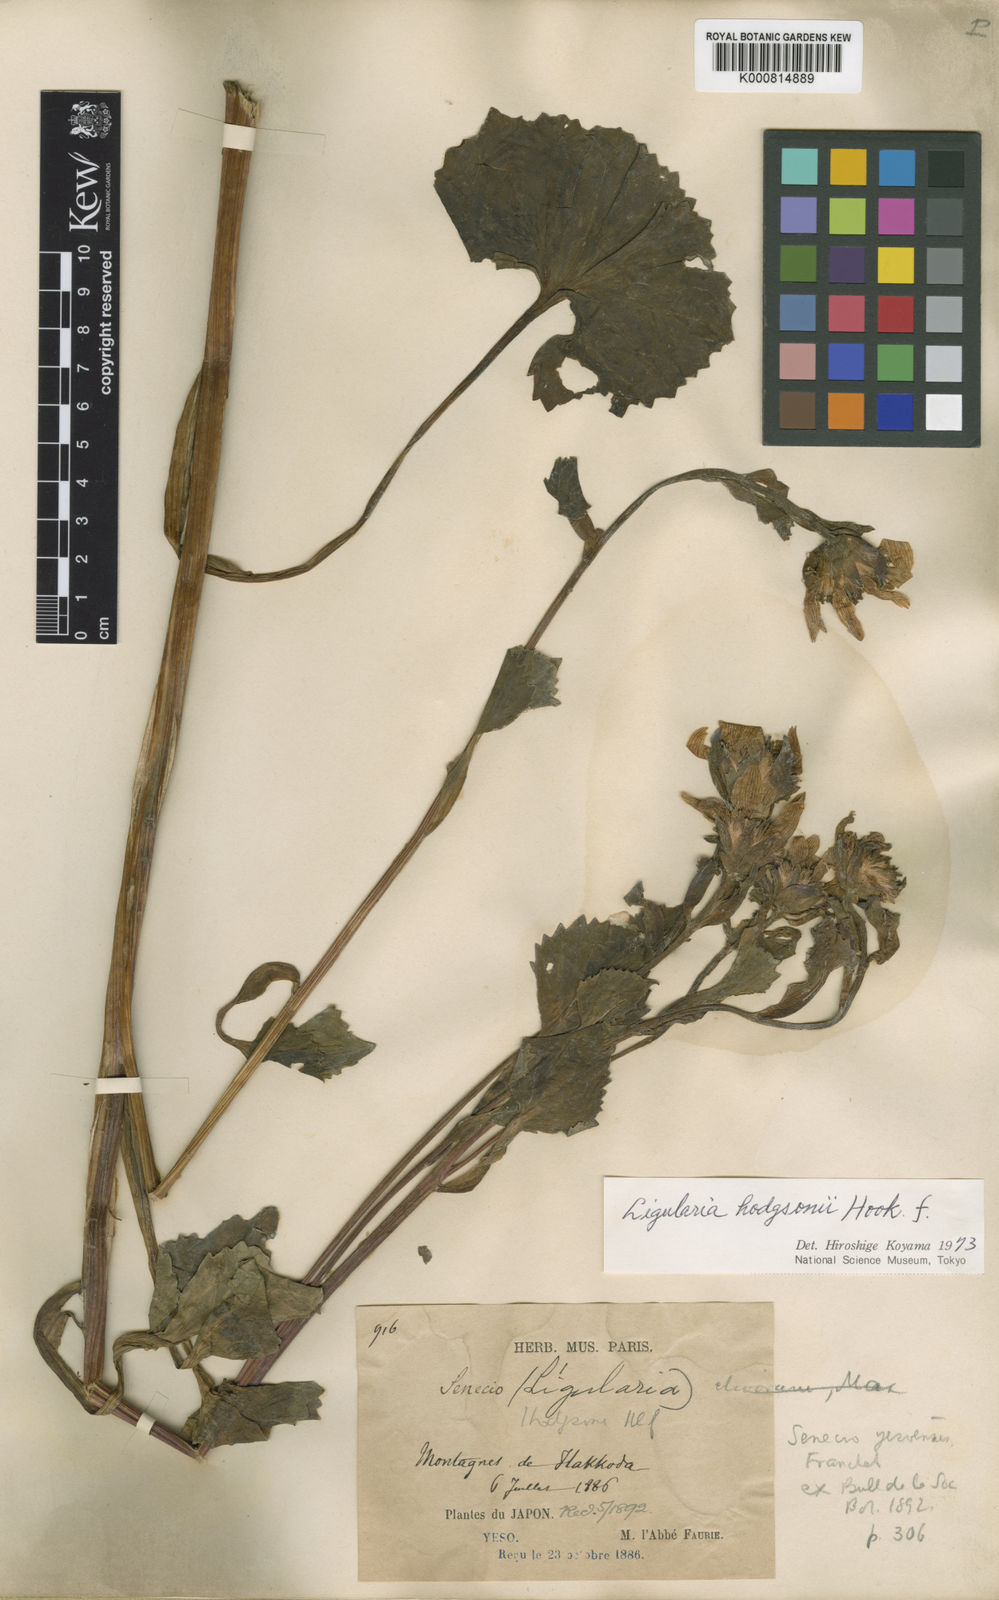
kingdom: Plantae
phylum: Tracheophyta
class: Magnoliopsida
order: Asterales
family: Asteraceae
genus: Ligularia
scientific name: Ligularia hodgsonii
